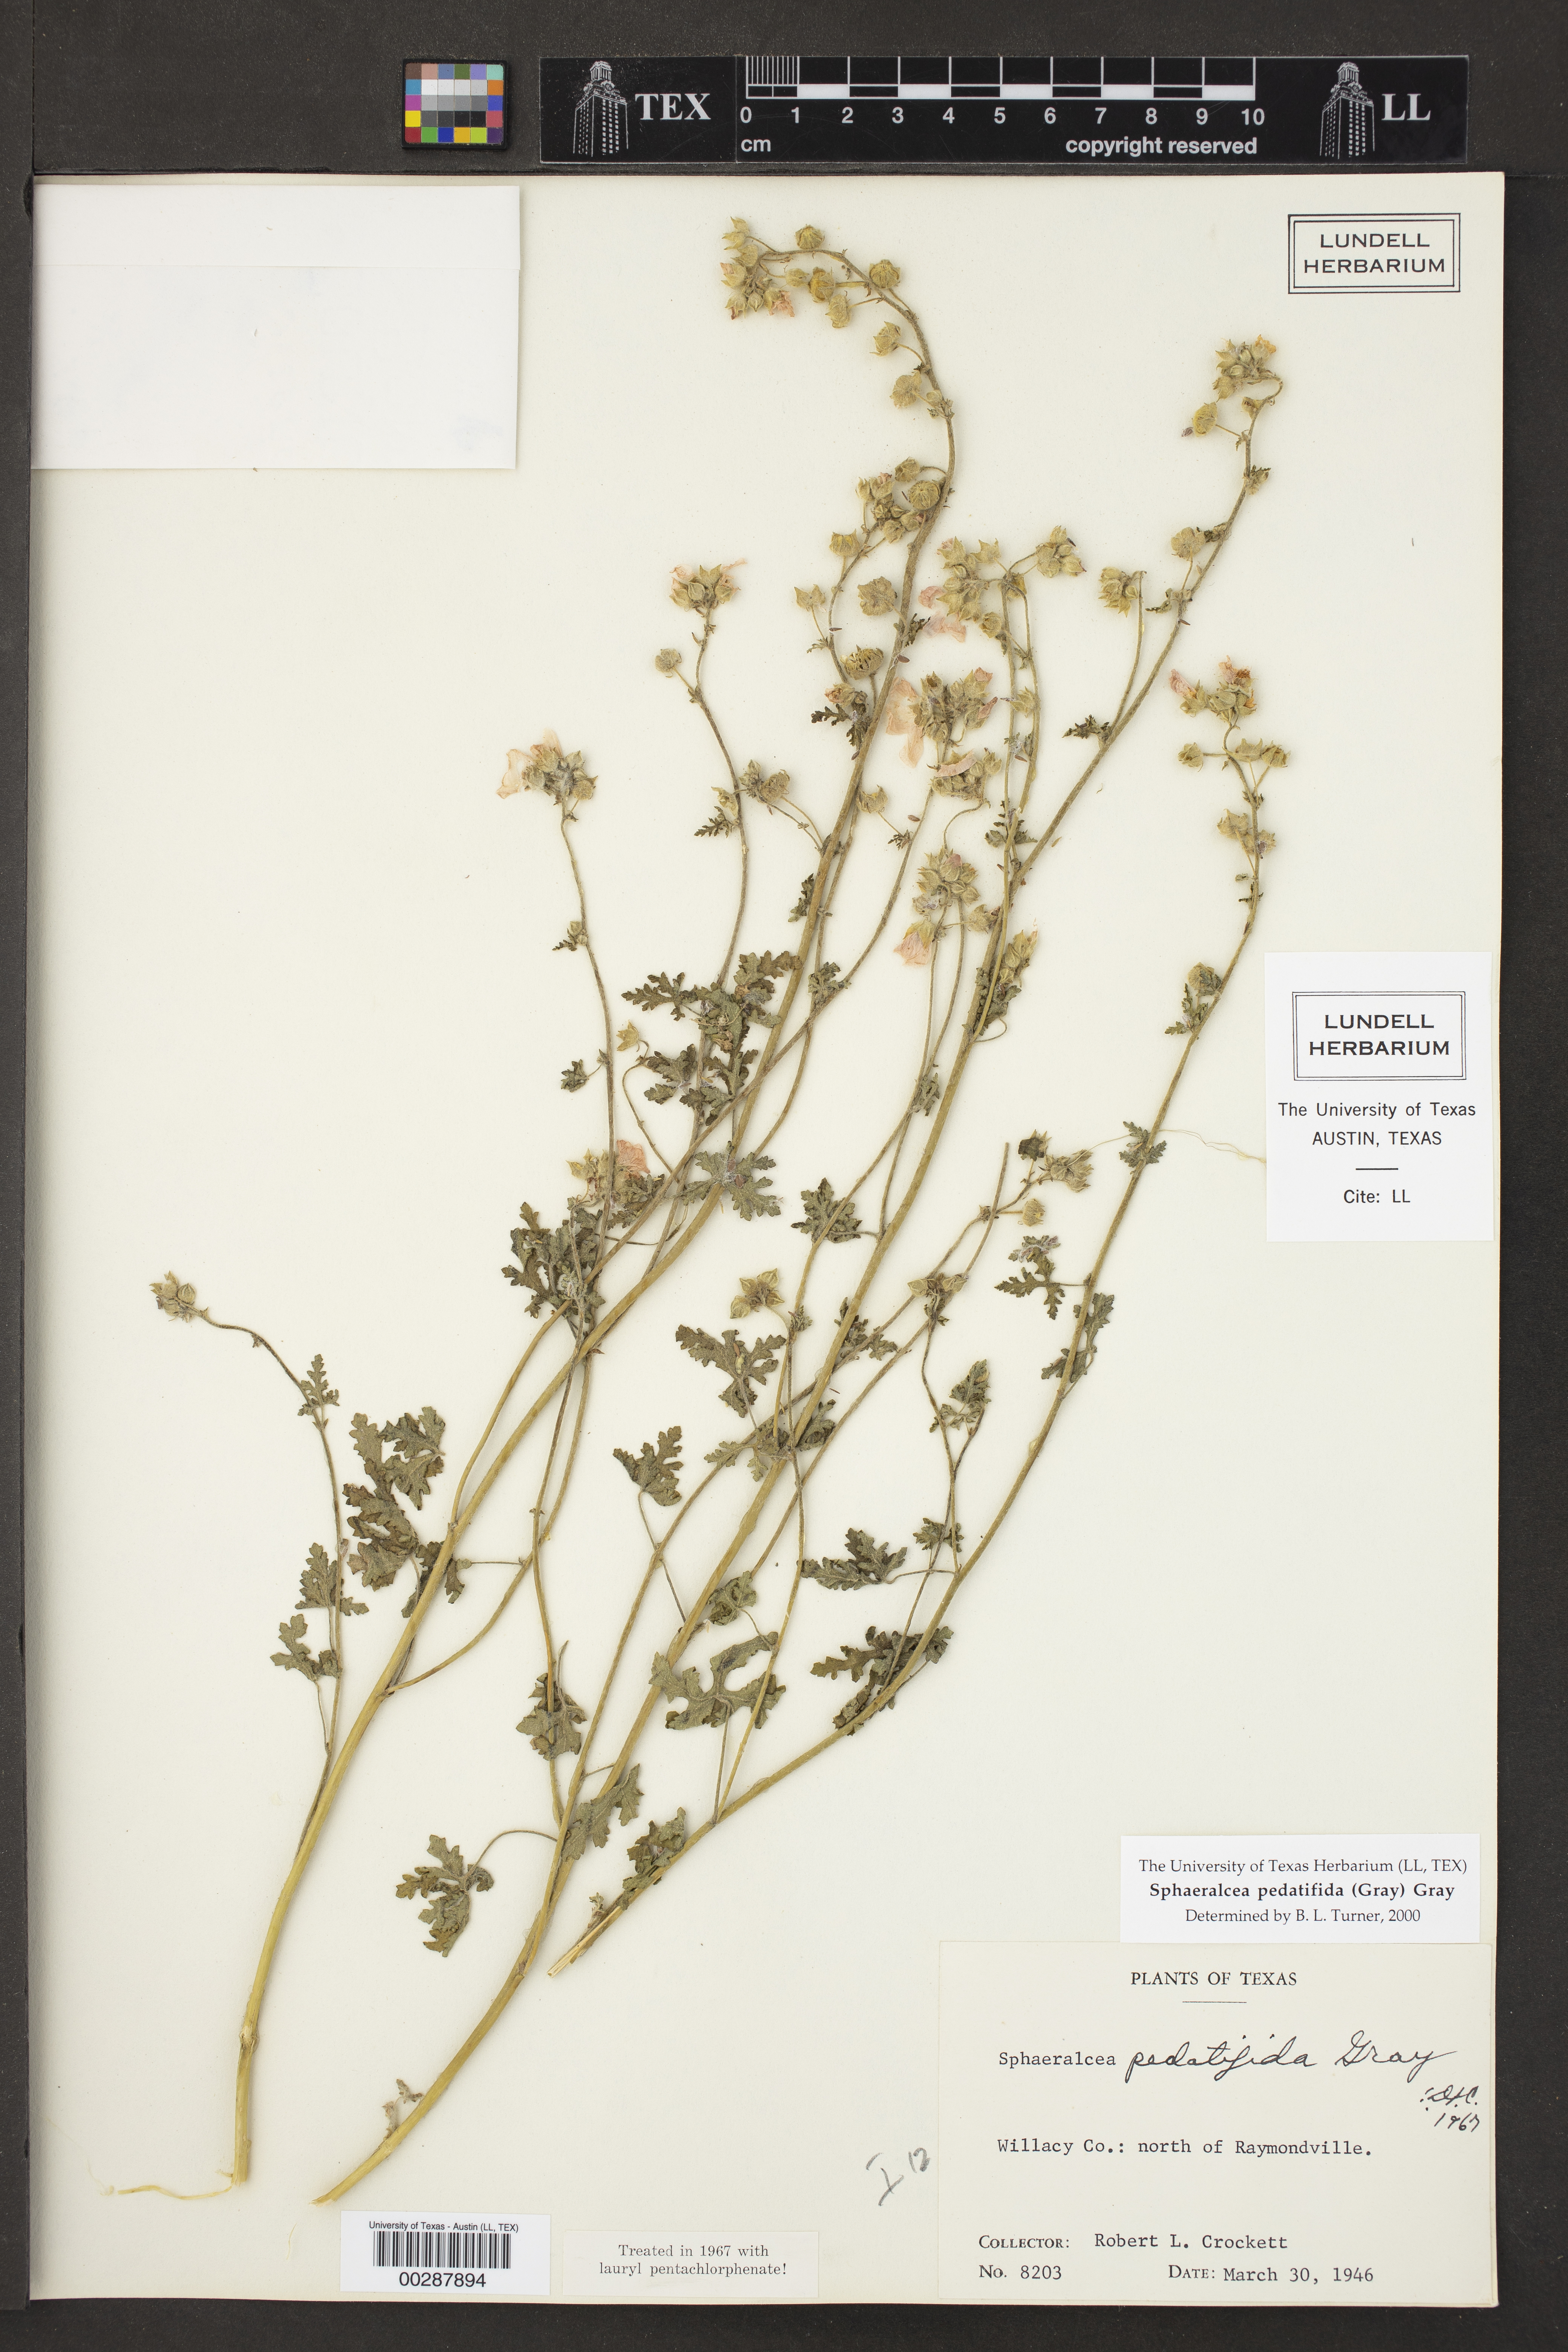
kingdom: Plantae
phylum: Tracheophyta
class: Magnoliopsida
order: Malvales
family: Malvaceae
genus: Sphaeralcea
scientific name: Sphaeralcea pedatifida
